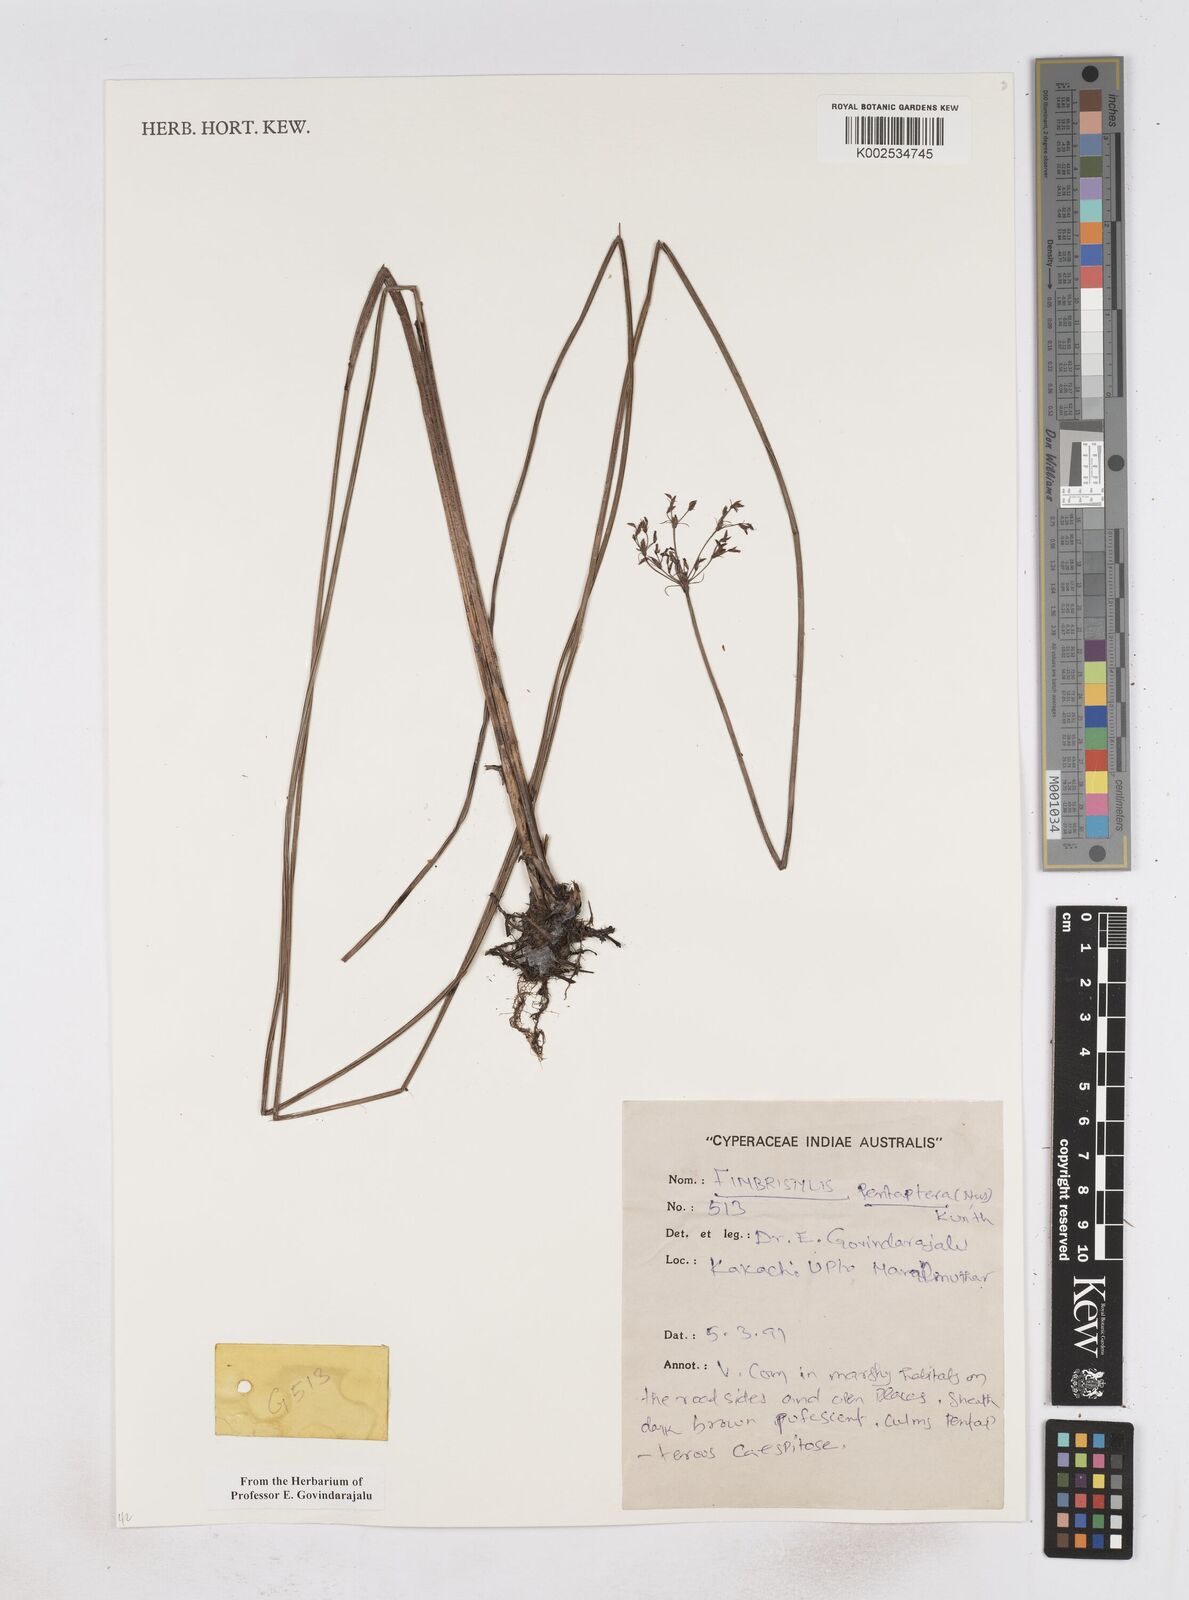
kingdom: Plantae
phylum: Tracheophyta
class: Liliopsida
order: Poales
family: Cyperaceae
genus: Fimbristylis
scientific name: Fimbristylis salbundia
